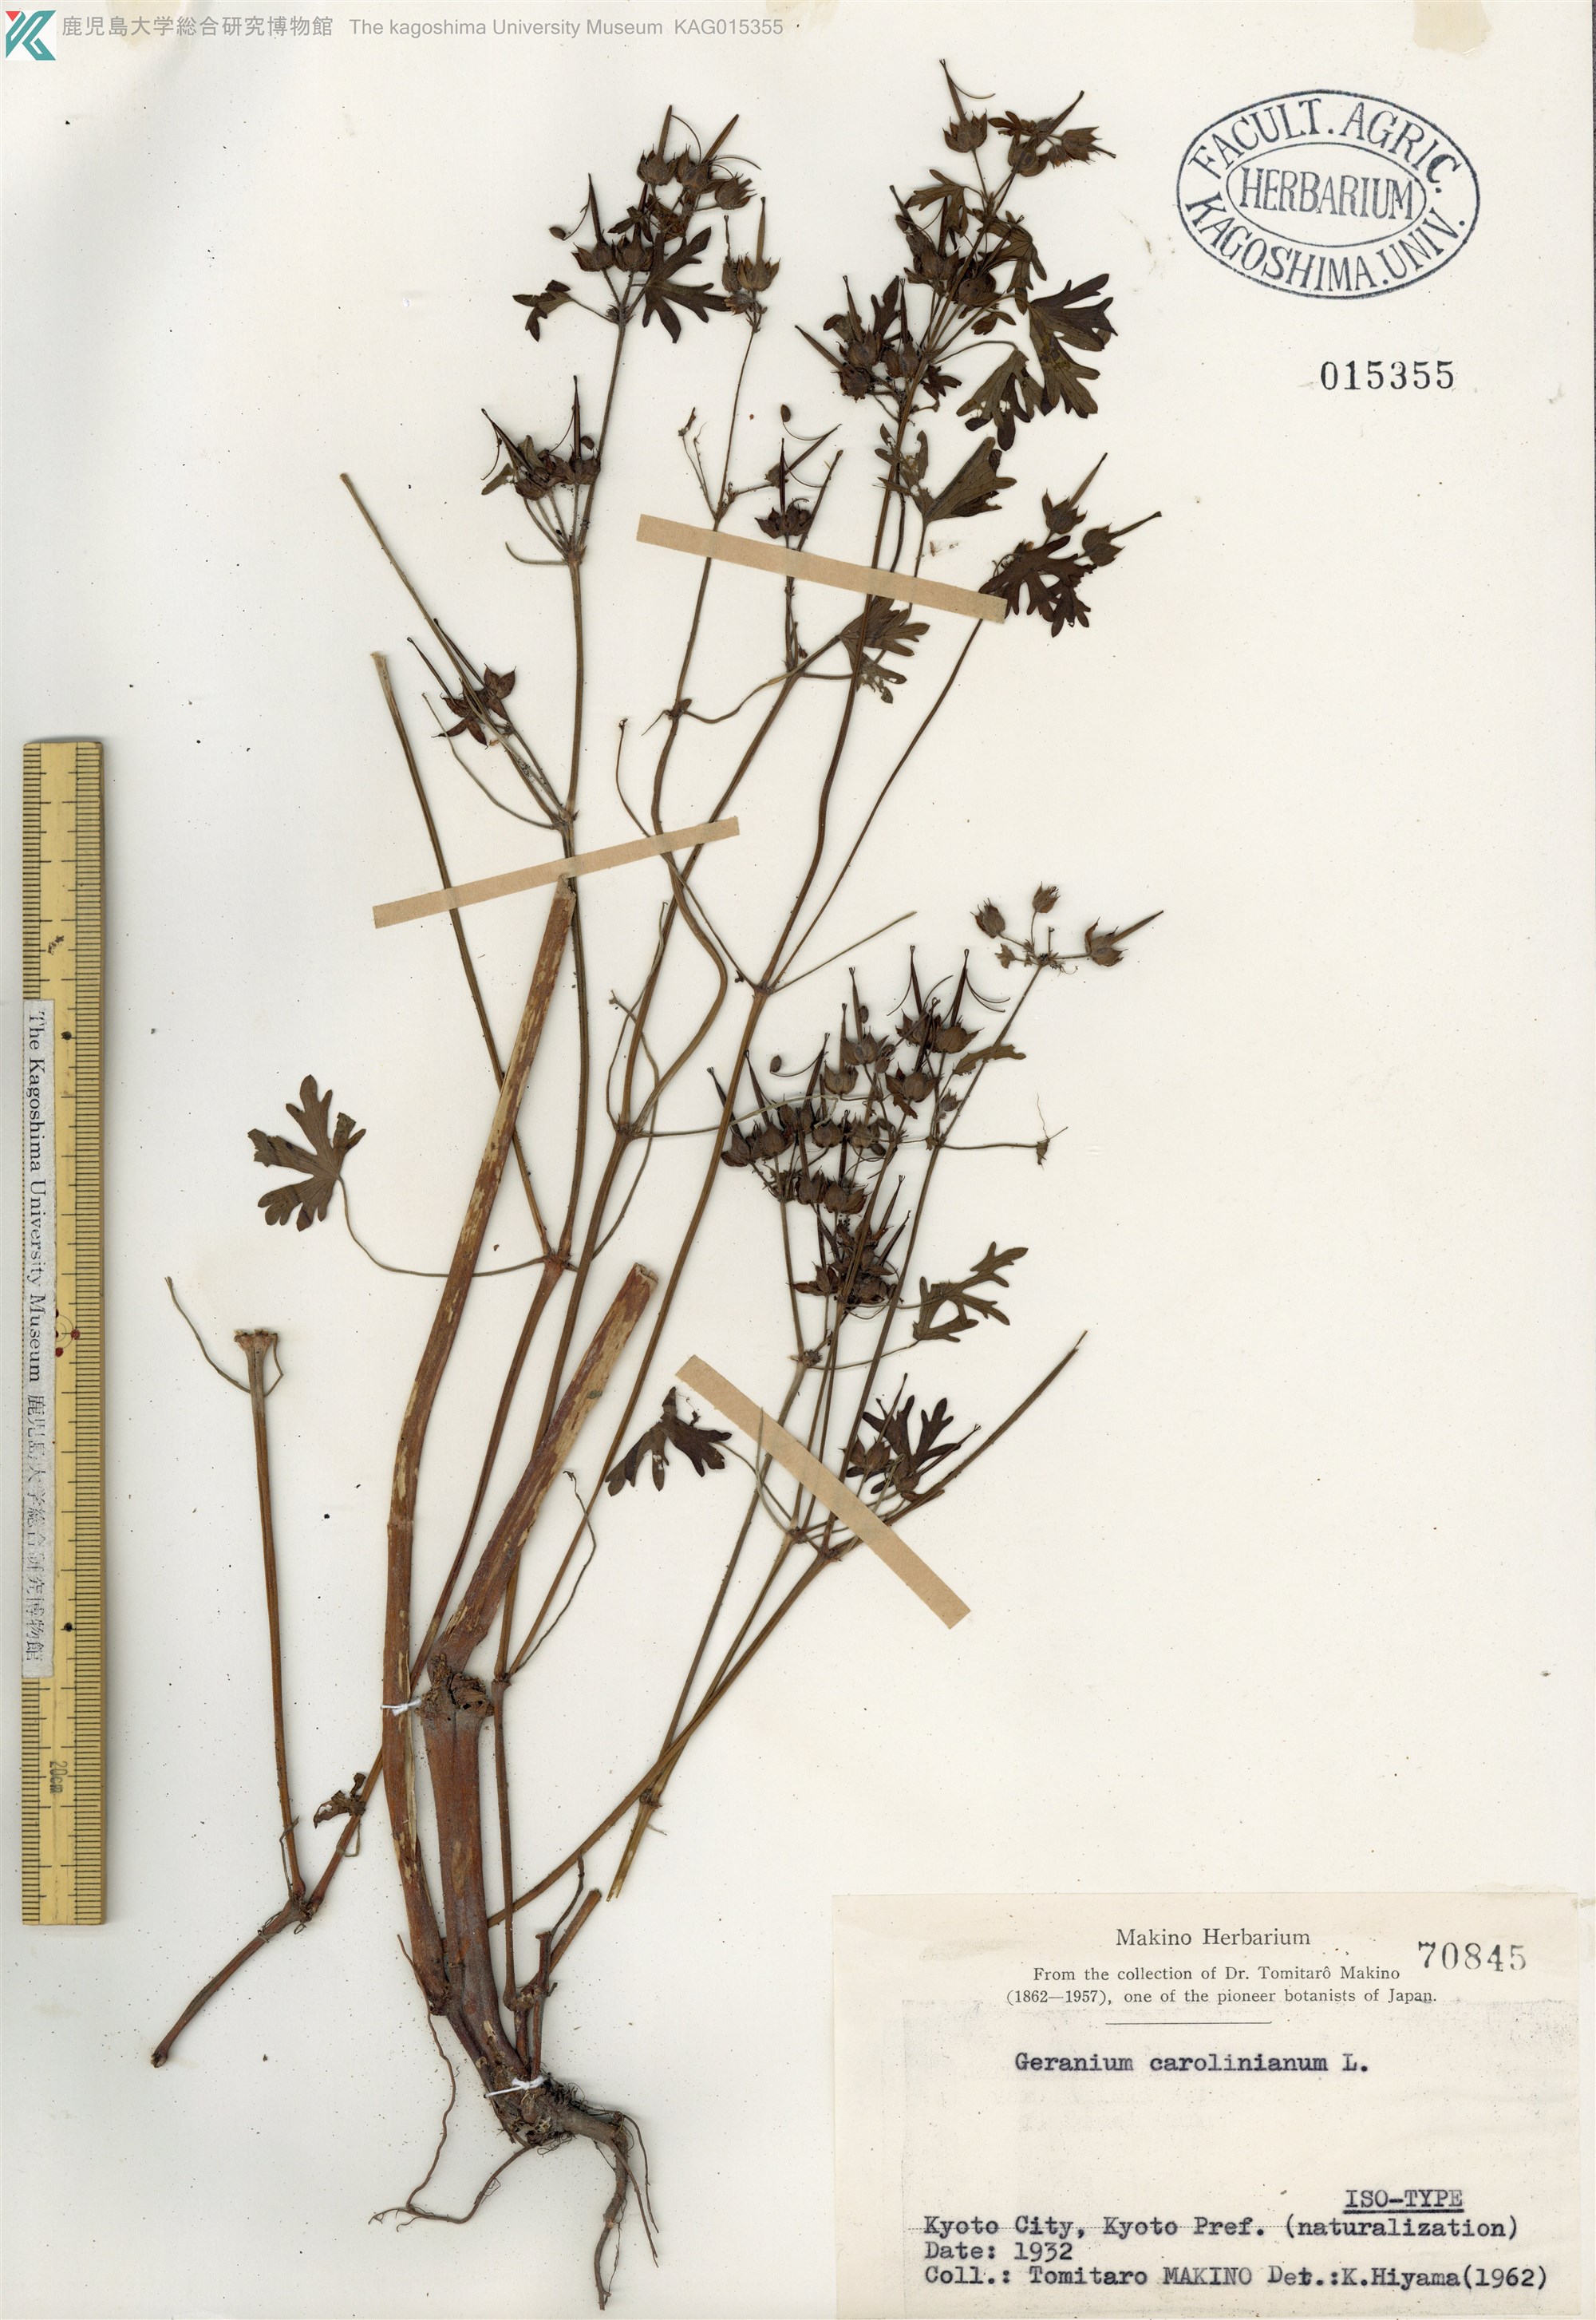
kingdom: Plantae
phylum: Tracheophyta
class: Magnoliopsida
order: Geraniales
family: Geraniaceae
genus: Geranium
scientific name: Geranium carolinianum
